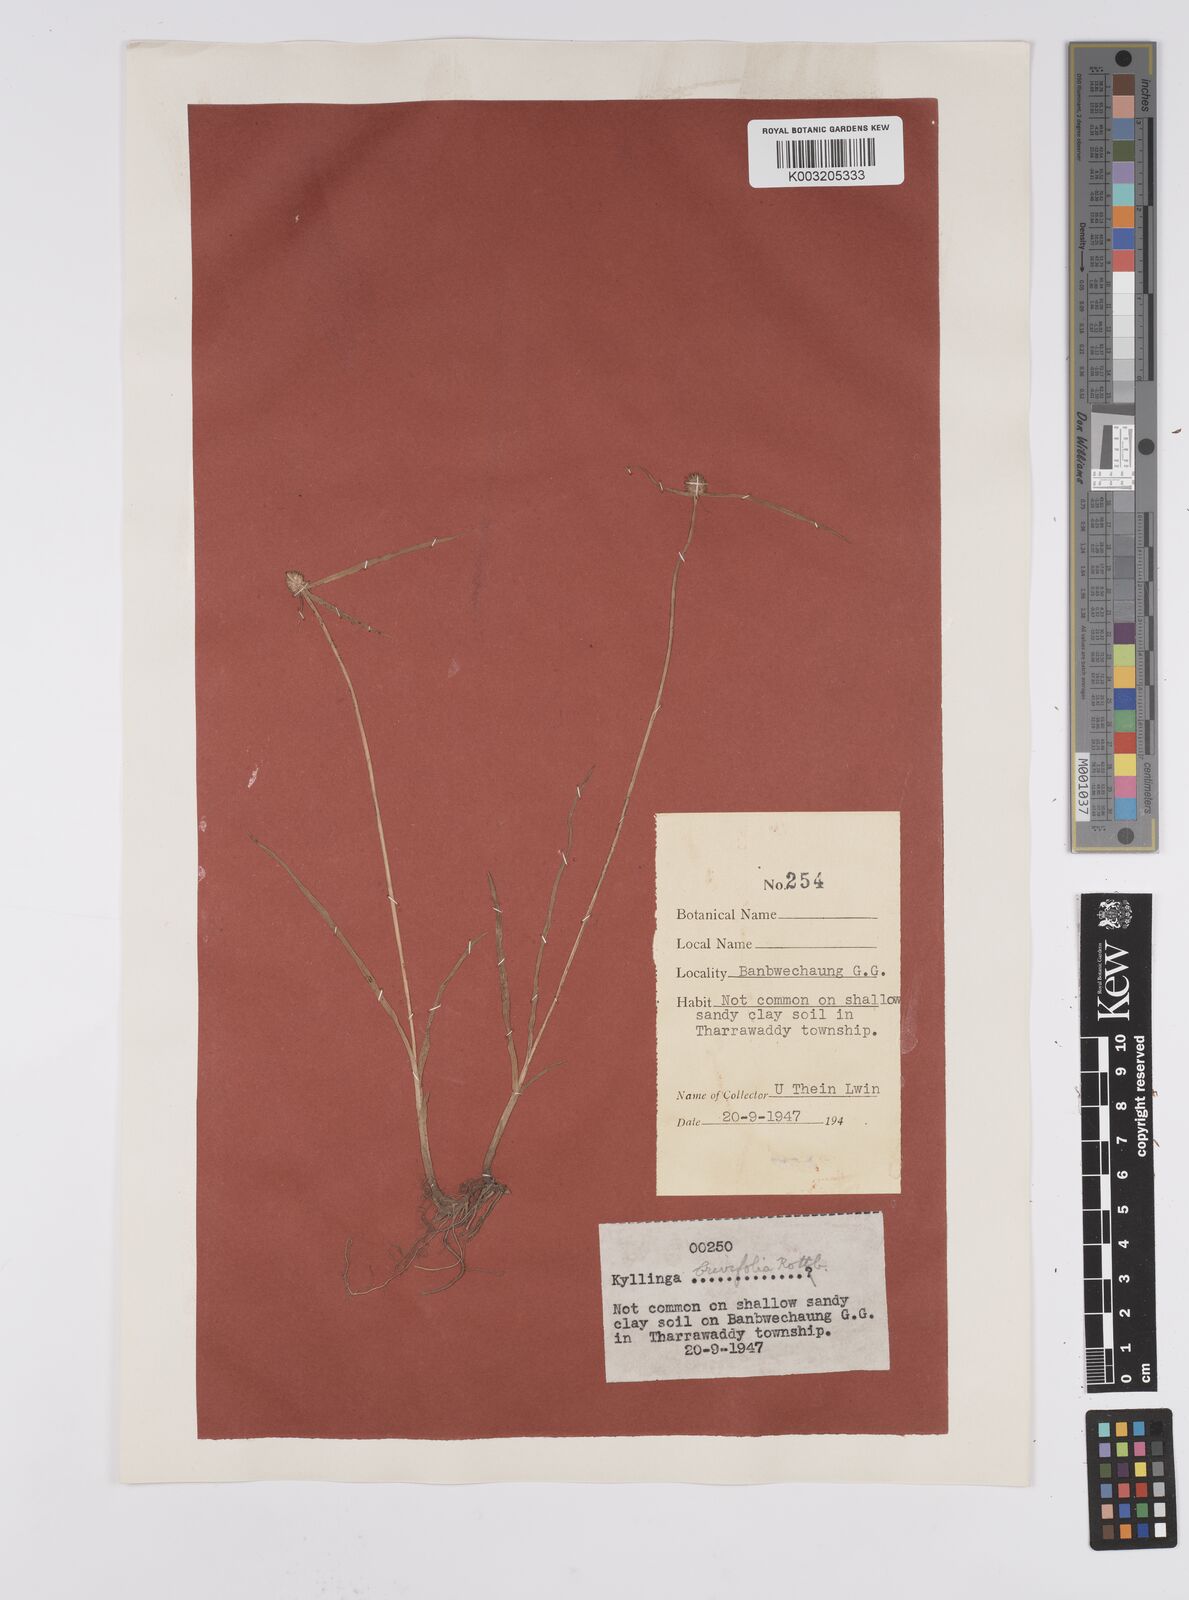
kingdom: Plantae
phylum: Tracheophyta
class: Liliopsida
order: Poales
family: Cyperaceae
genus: Cyperus
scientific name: Cyperus brevifolius
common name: Globe kyllinga
